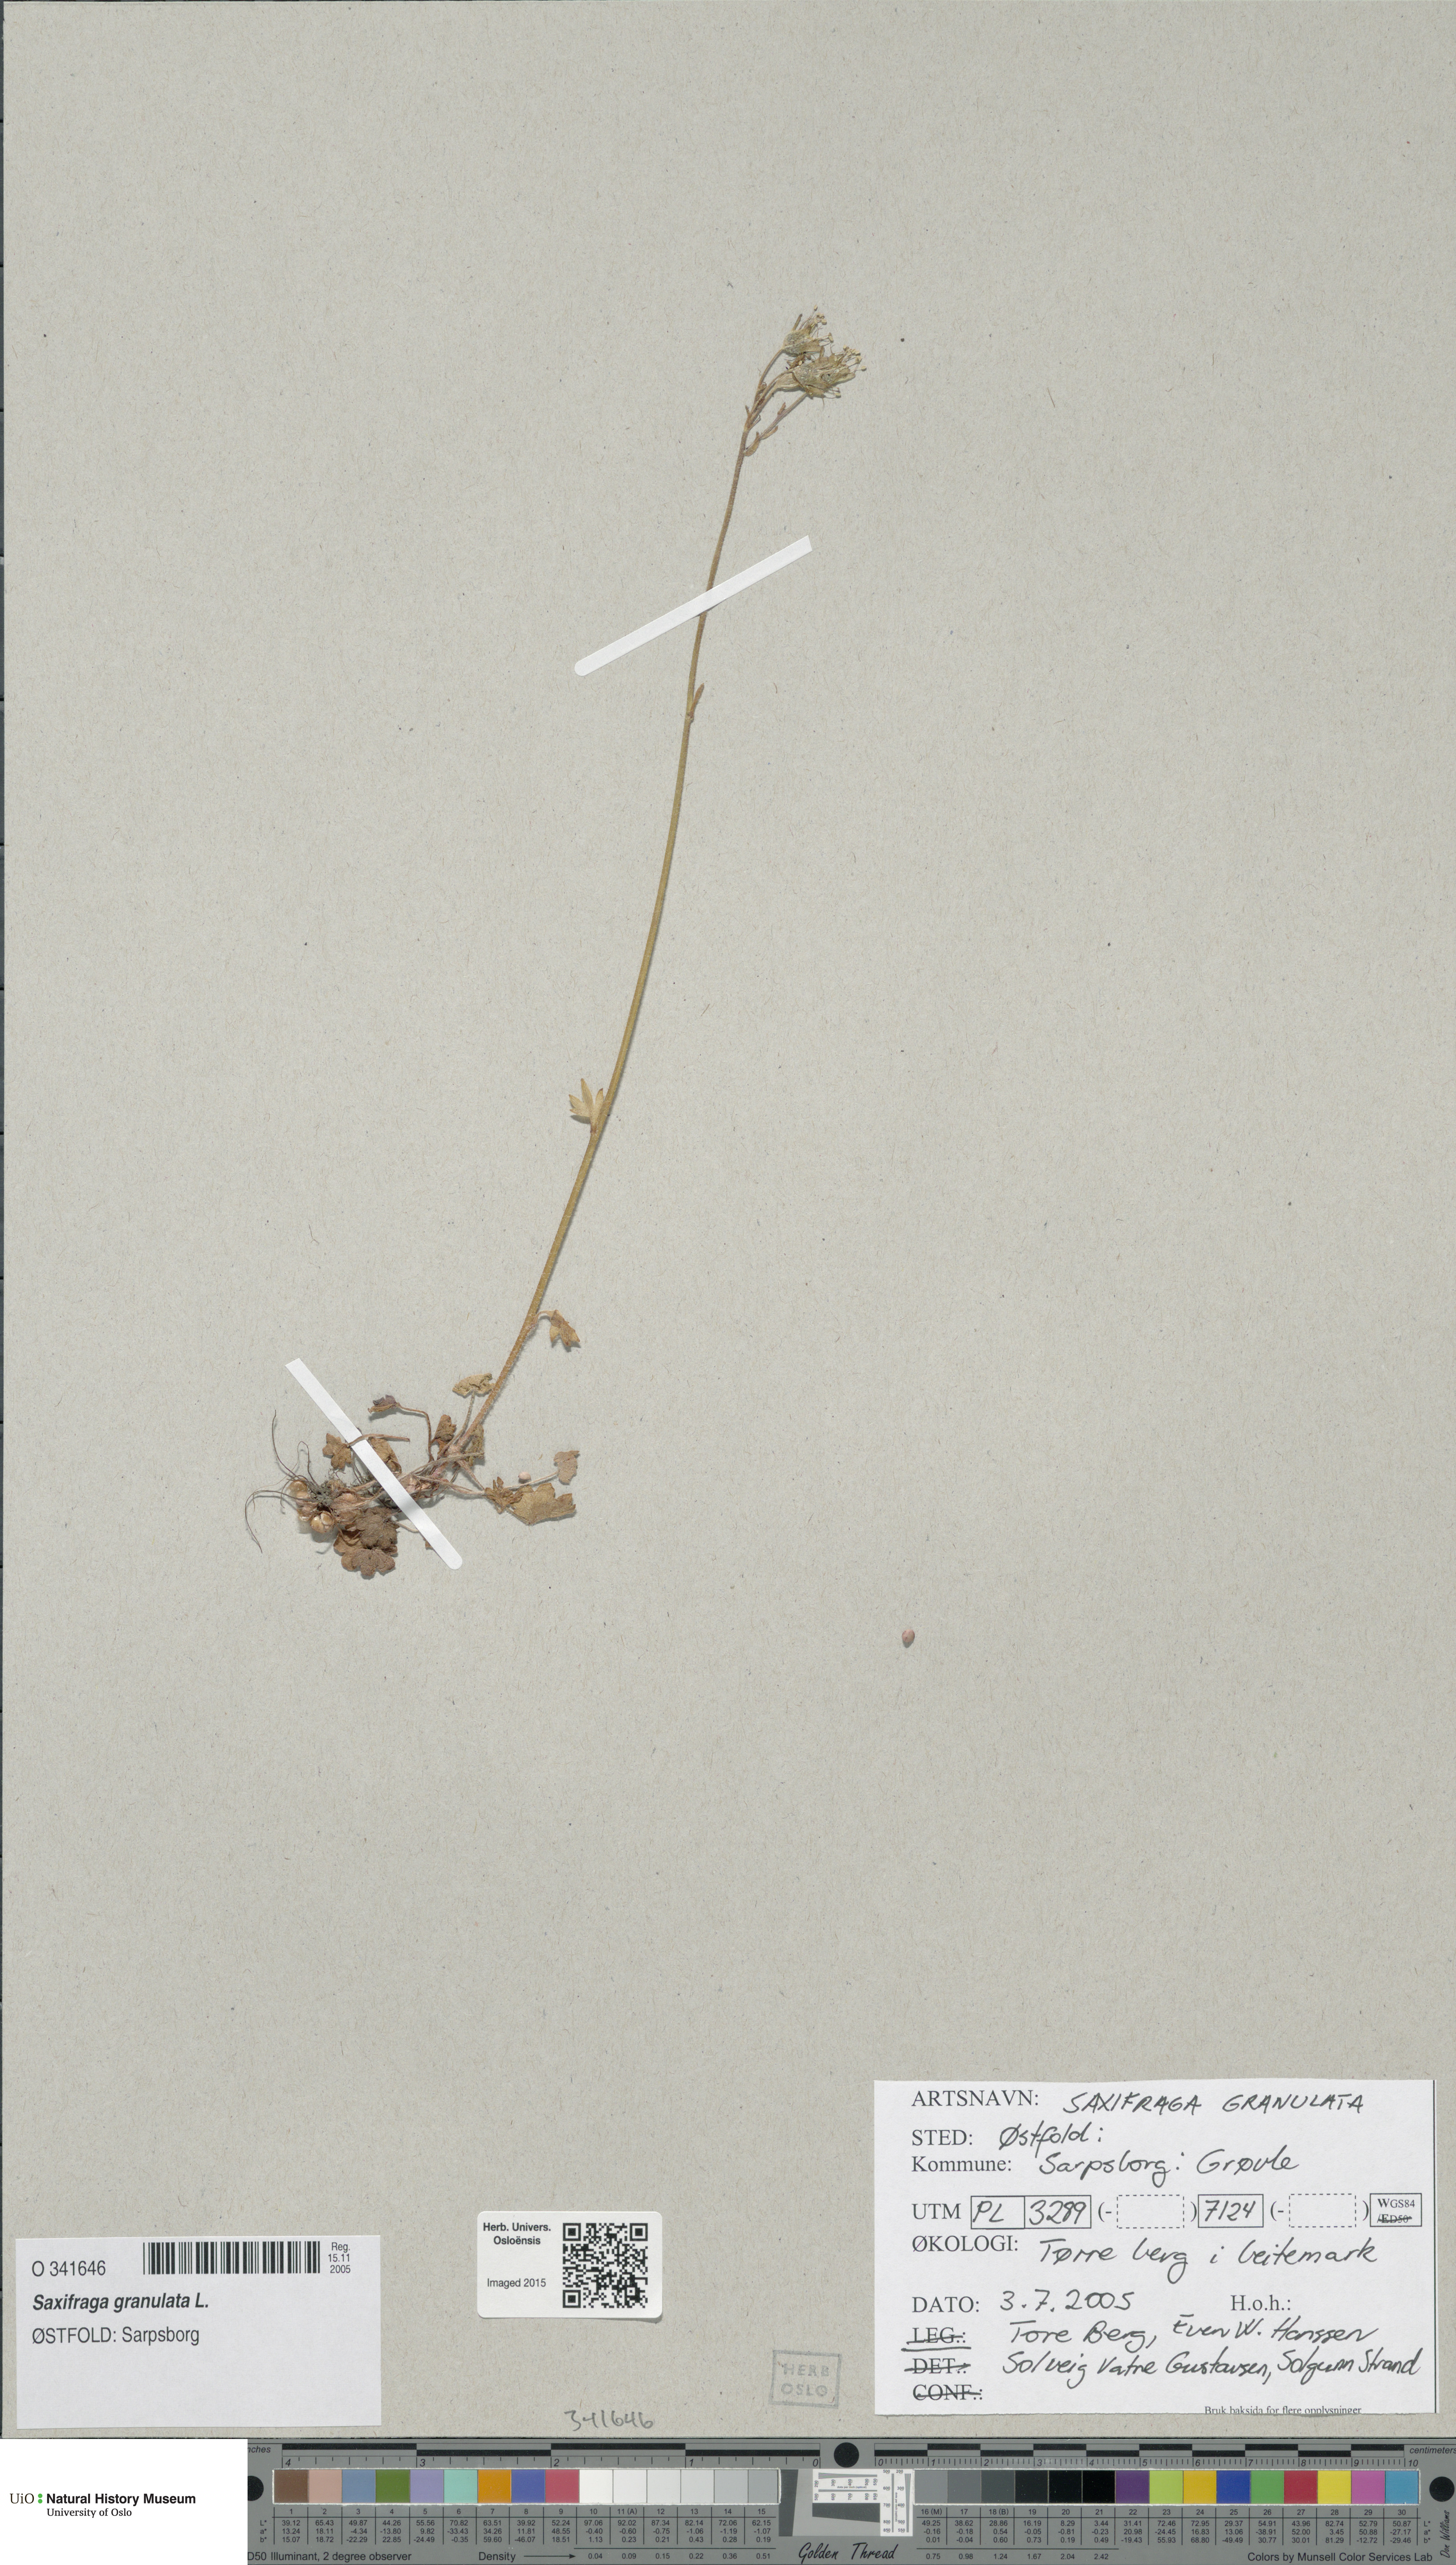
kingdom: Plantae
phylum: Tracheophyta
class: Magnoliopsida
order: Saxifragales
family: Saxifragaceae
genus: Saxifraga
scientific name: Saxifraga granulata
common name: Meadow saxifrage
